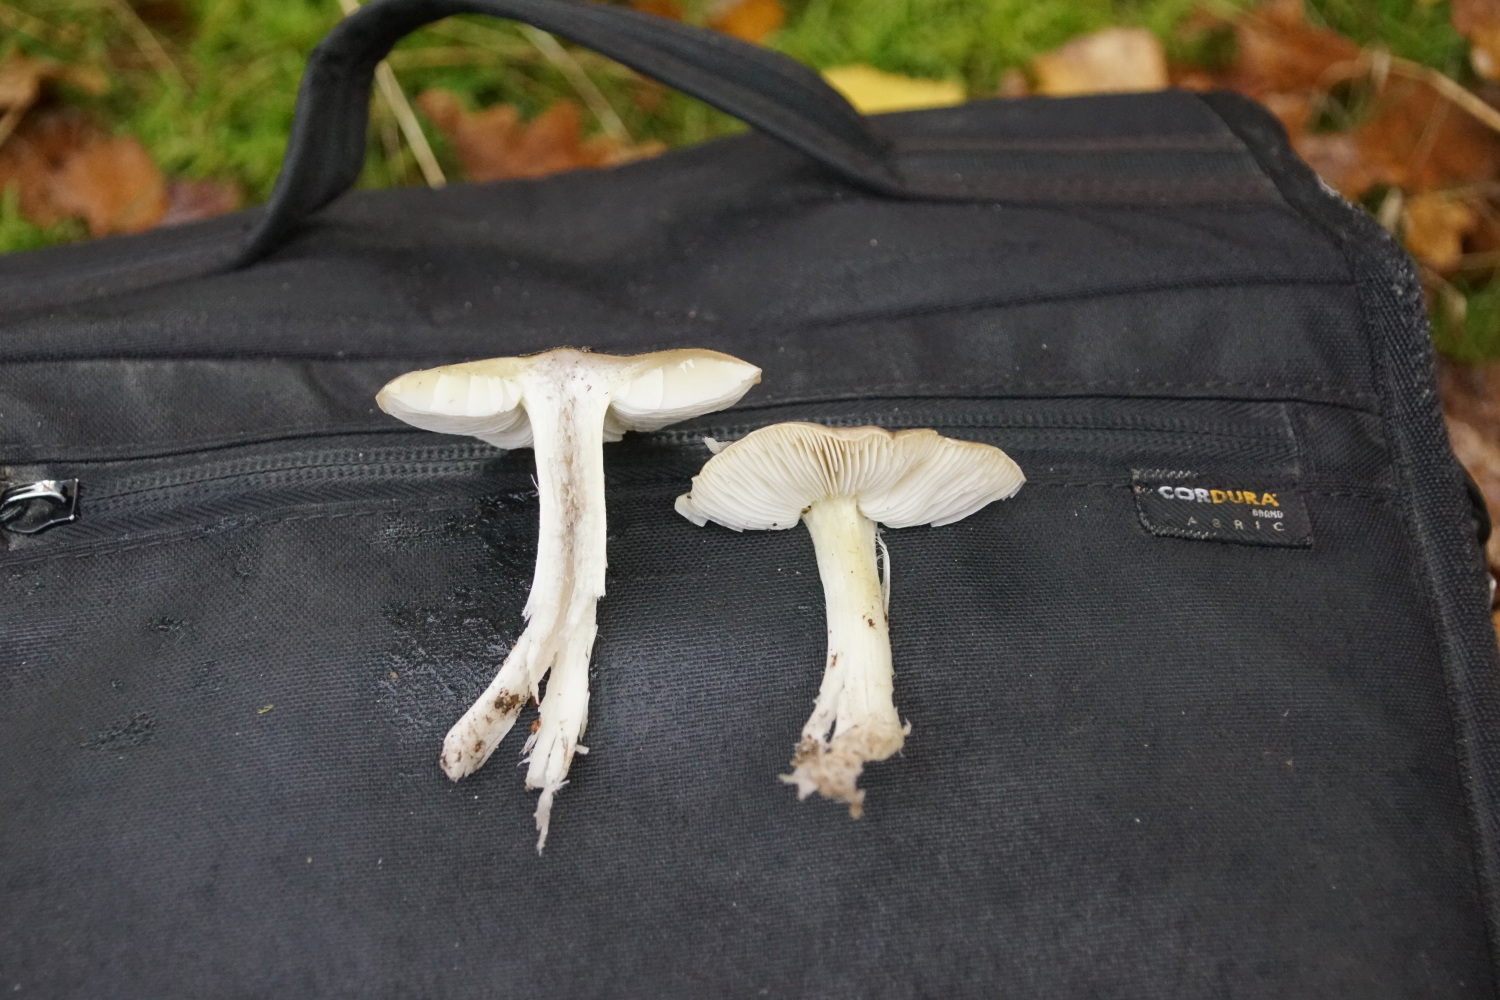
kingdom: Fungi
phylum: Basidiomycota
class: Agaricomycetes
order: Agaricales
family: Tricholomataceae
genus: Tricholoma
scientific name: Tricholoma scalpturatum
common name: gulplettet ridderhat
